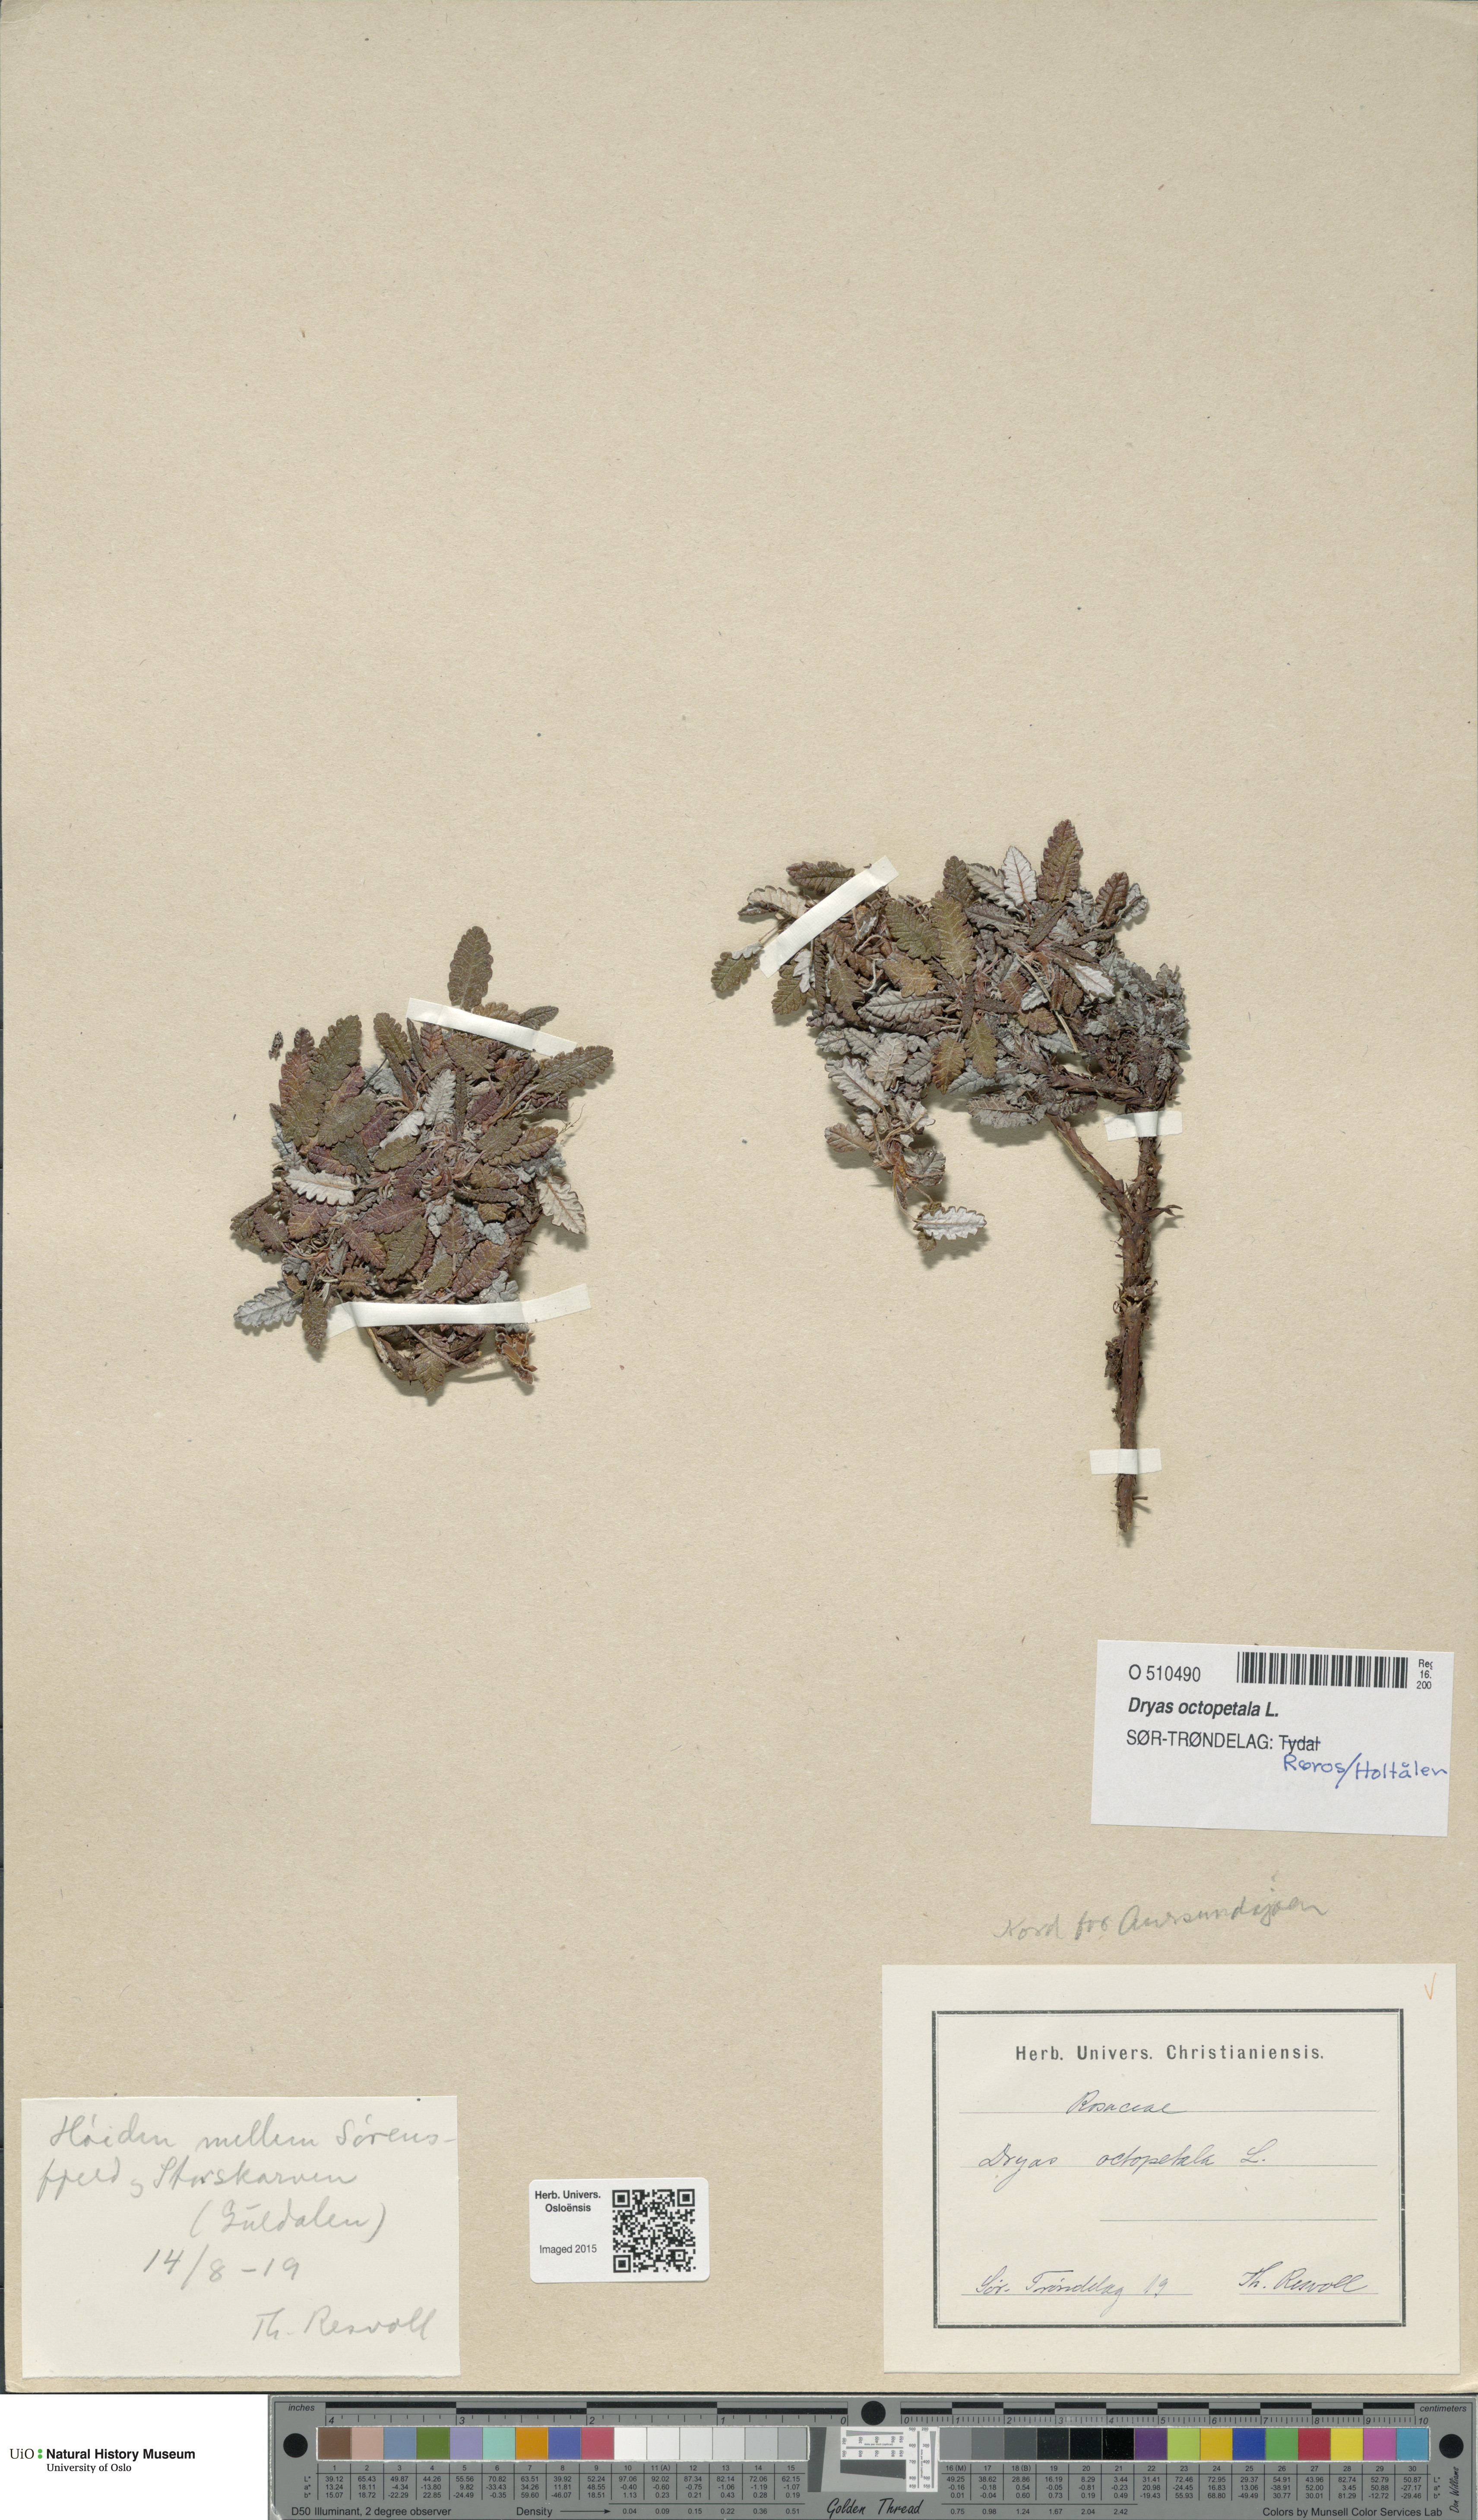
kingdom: Plantae
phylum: Tracheophyta
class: Magnoliopsida
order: Rosales
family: Rosaceae
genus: Dryas
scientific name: Dryas octopetala
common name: Eight-petal mountain-avens
